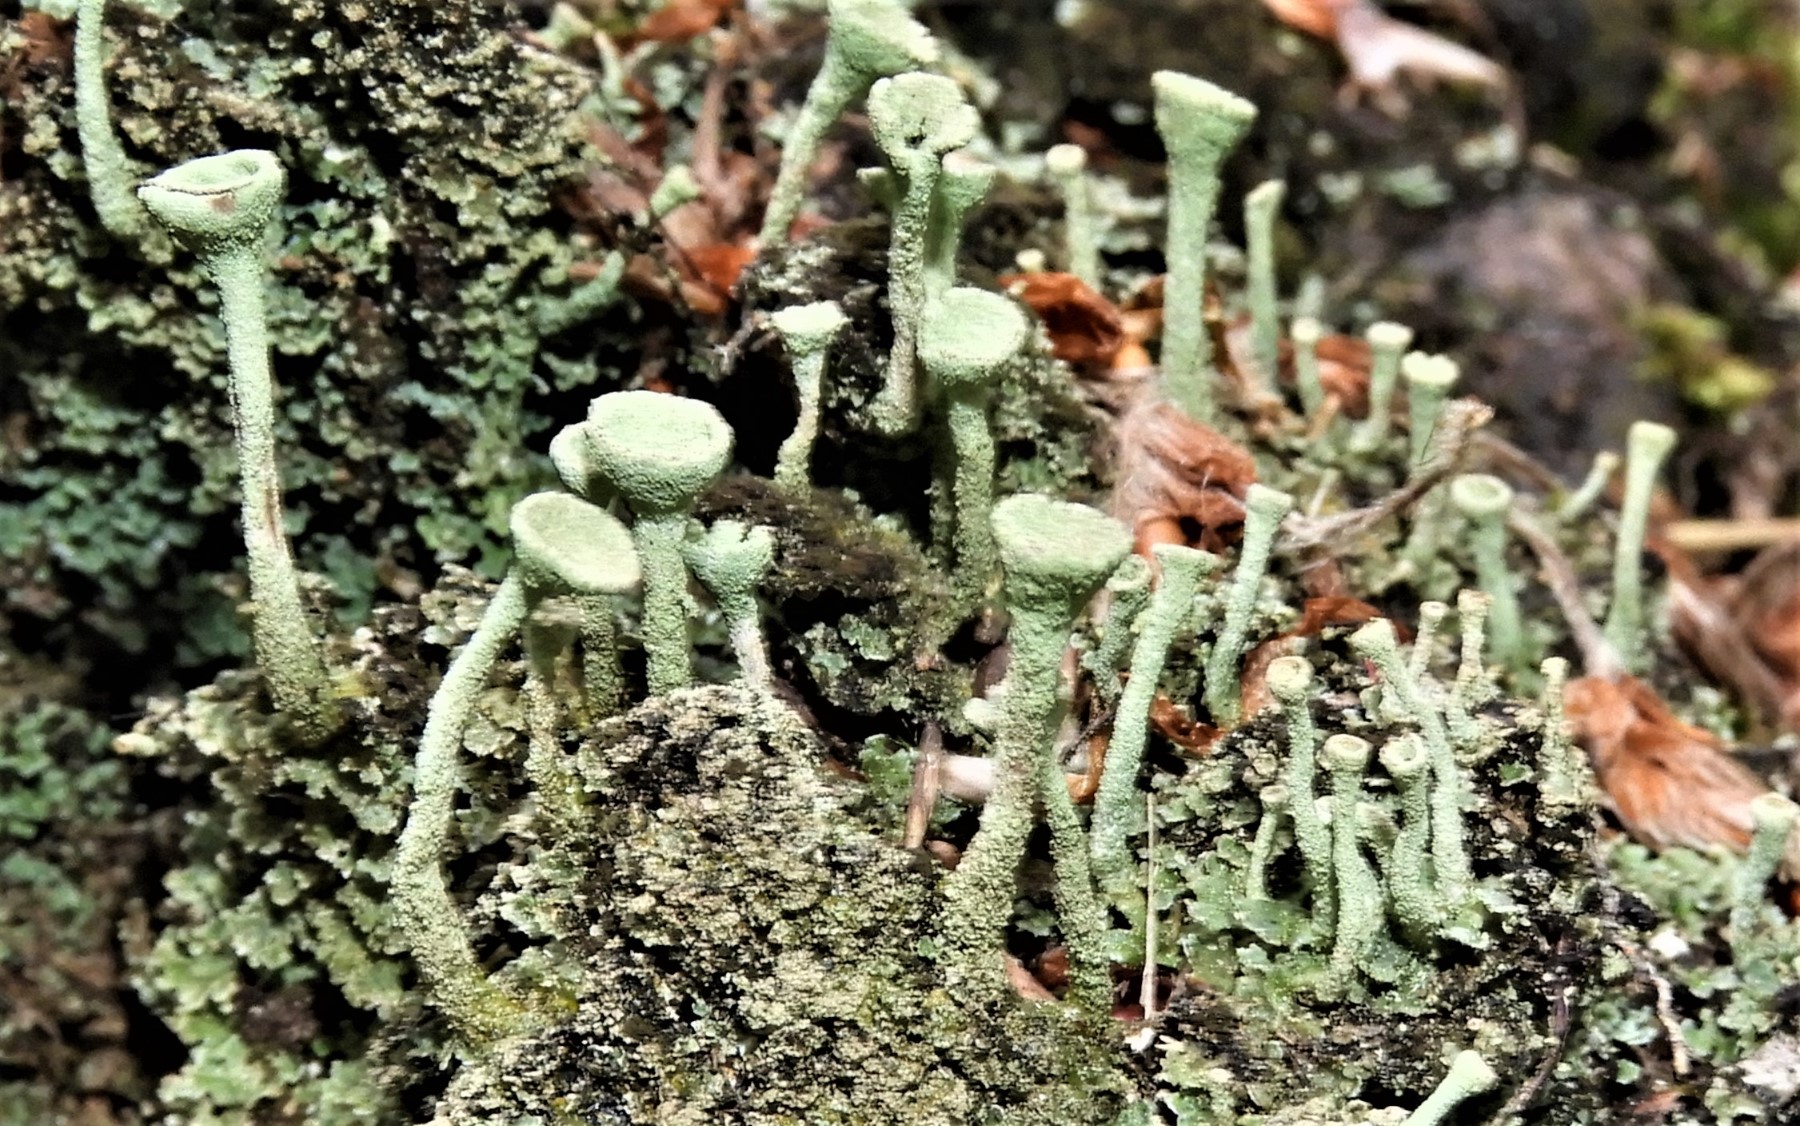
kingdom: Fungi
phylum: Ascomycota
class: Lecanoromycetes
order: Lecanorales
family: Cladoniaceae
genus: Cladonia
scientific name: Cladonia fimbriata
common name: bleggrøn bægerlav
